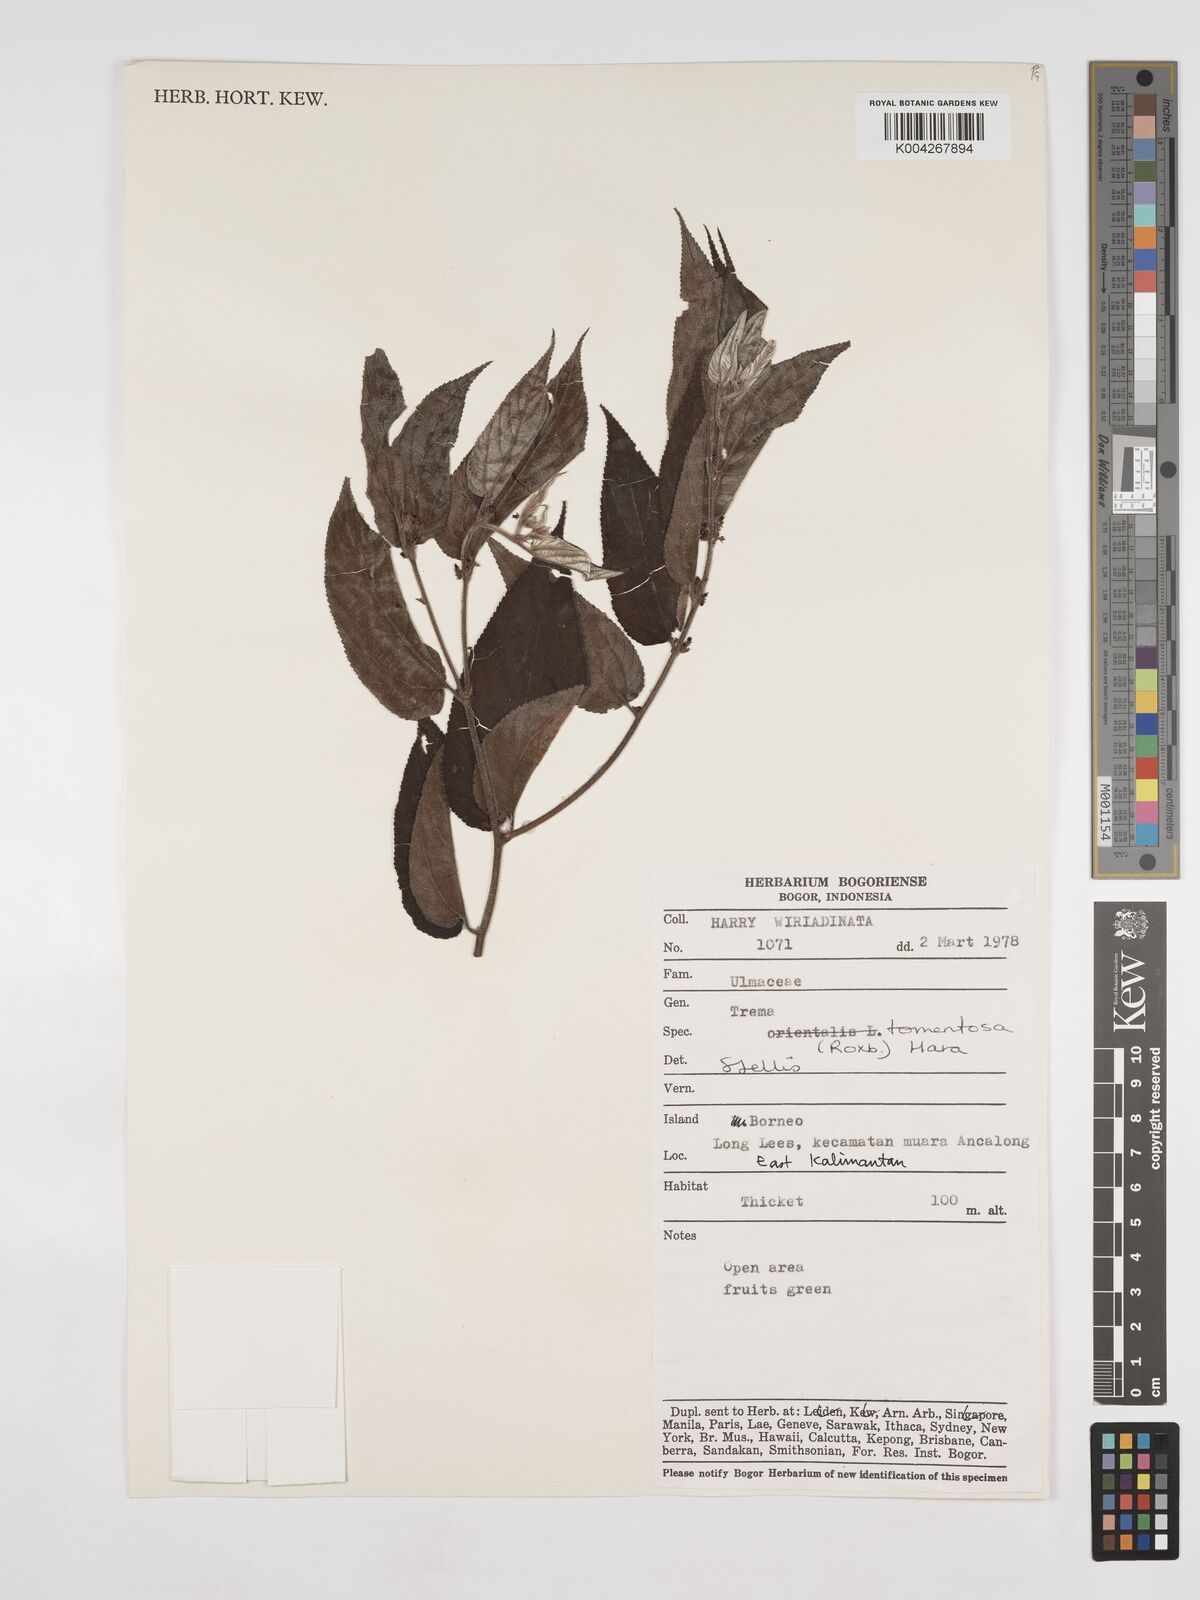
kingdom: Plantae
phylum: Tracheophyta
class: Magnoliopsida
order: Rosales
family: Cannabaceae
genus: Trema
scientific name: Trema tomentosum
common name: Peach-leaf-poisonbush
